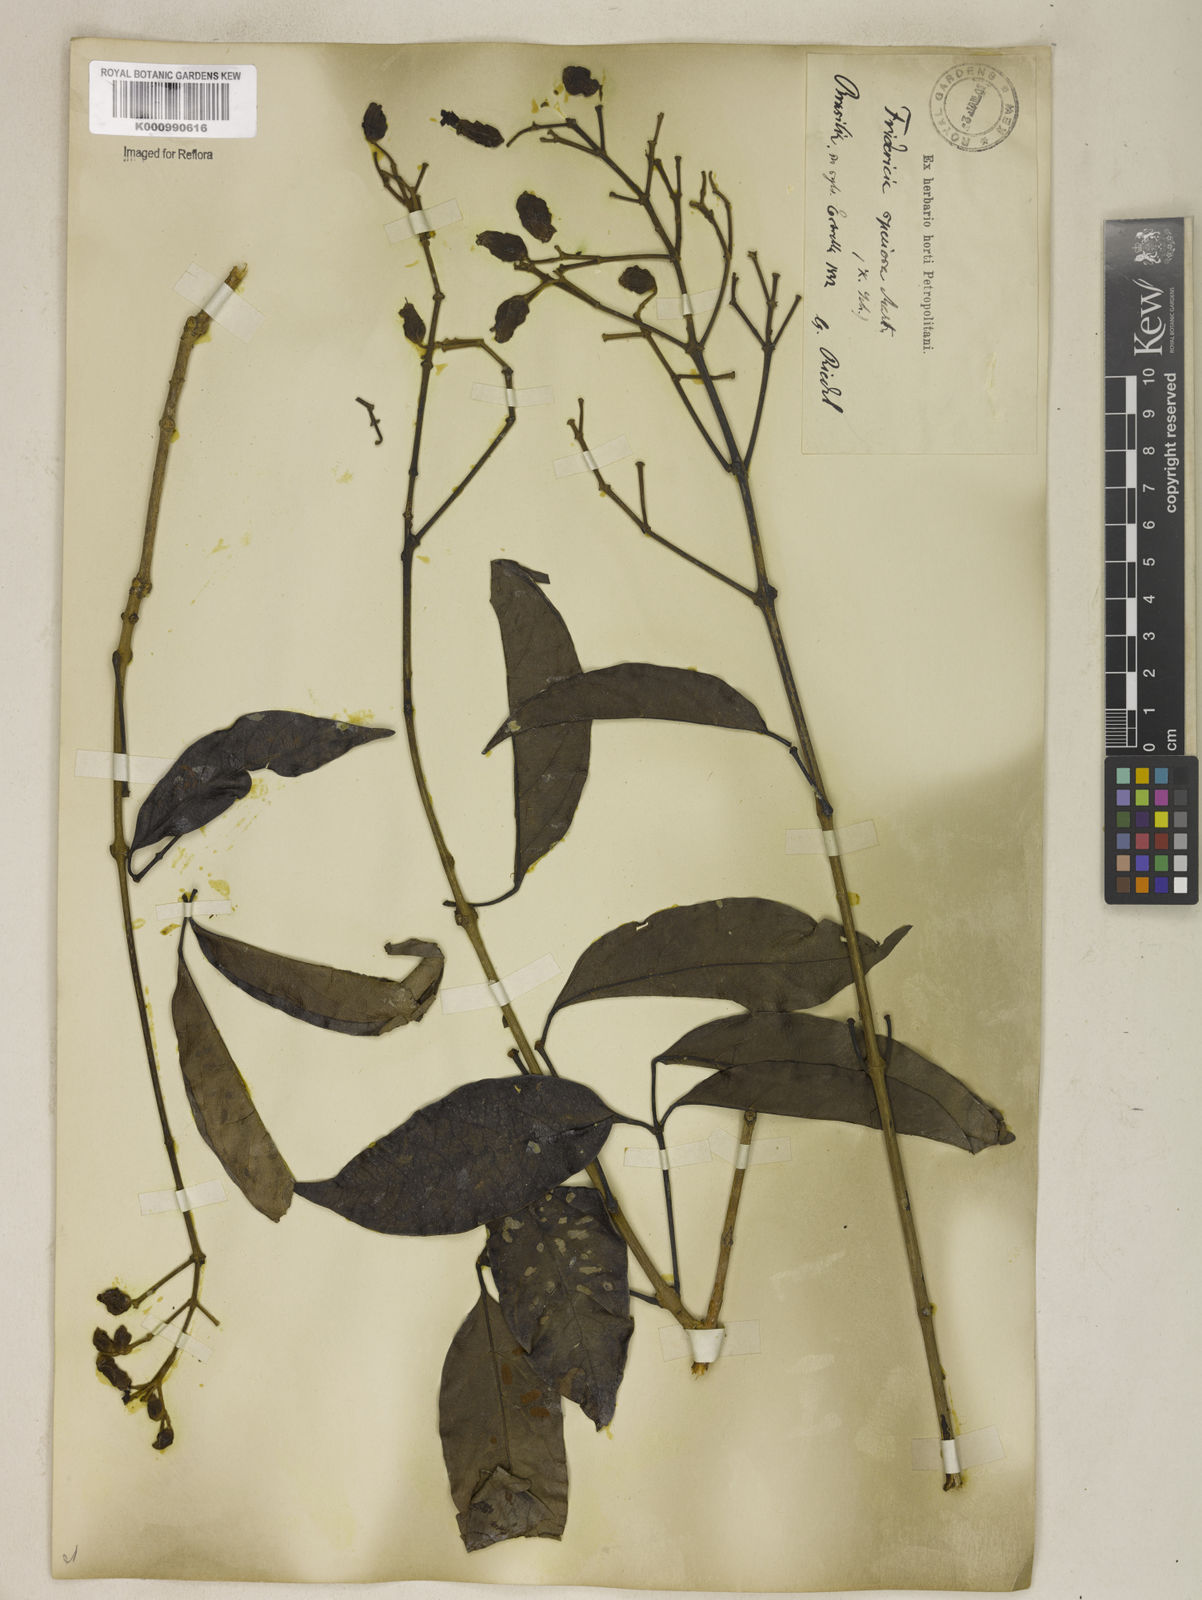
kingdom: Plantae
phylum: Tracheophyta
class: Magnoliopsida
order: Lamiales
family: Bignoniaceae
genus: Fridericia
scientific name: Fridericia speciosa
